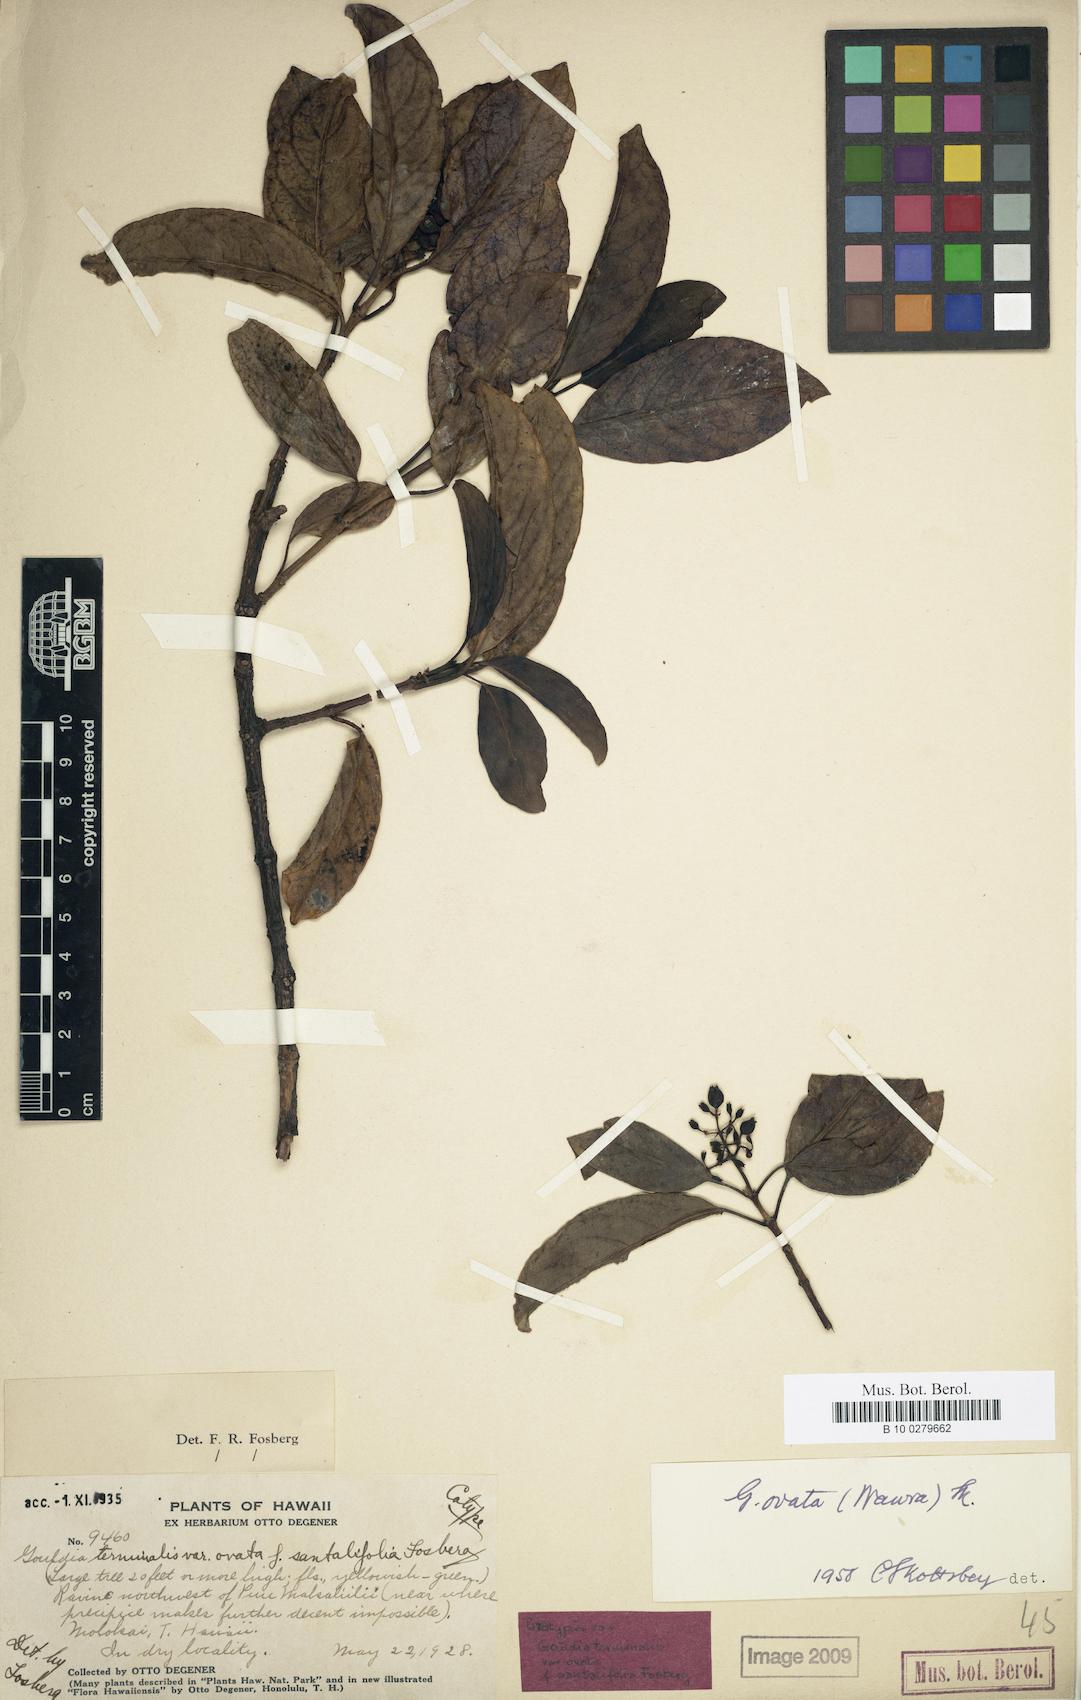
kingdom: Plantae
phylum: Tracheophyta
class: Magnoliopsida
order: Gentianales
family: Rubiaceae
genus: Kadua
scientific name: Kadua affinis
